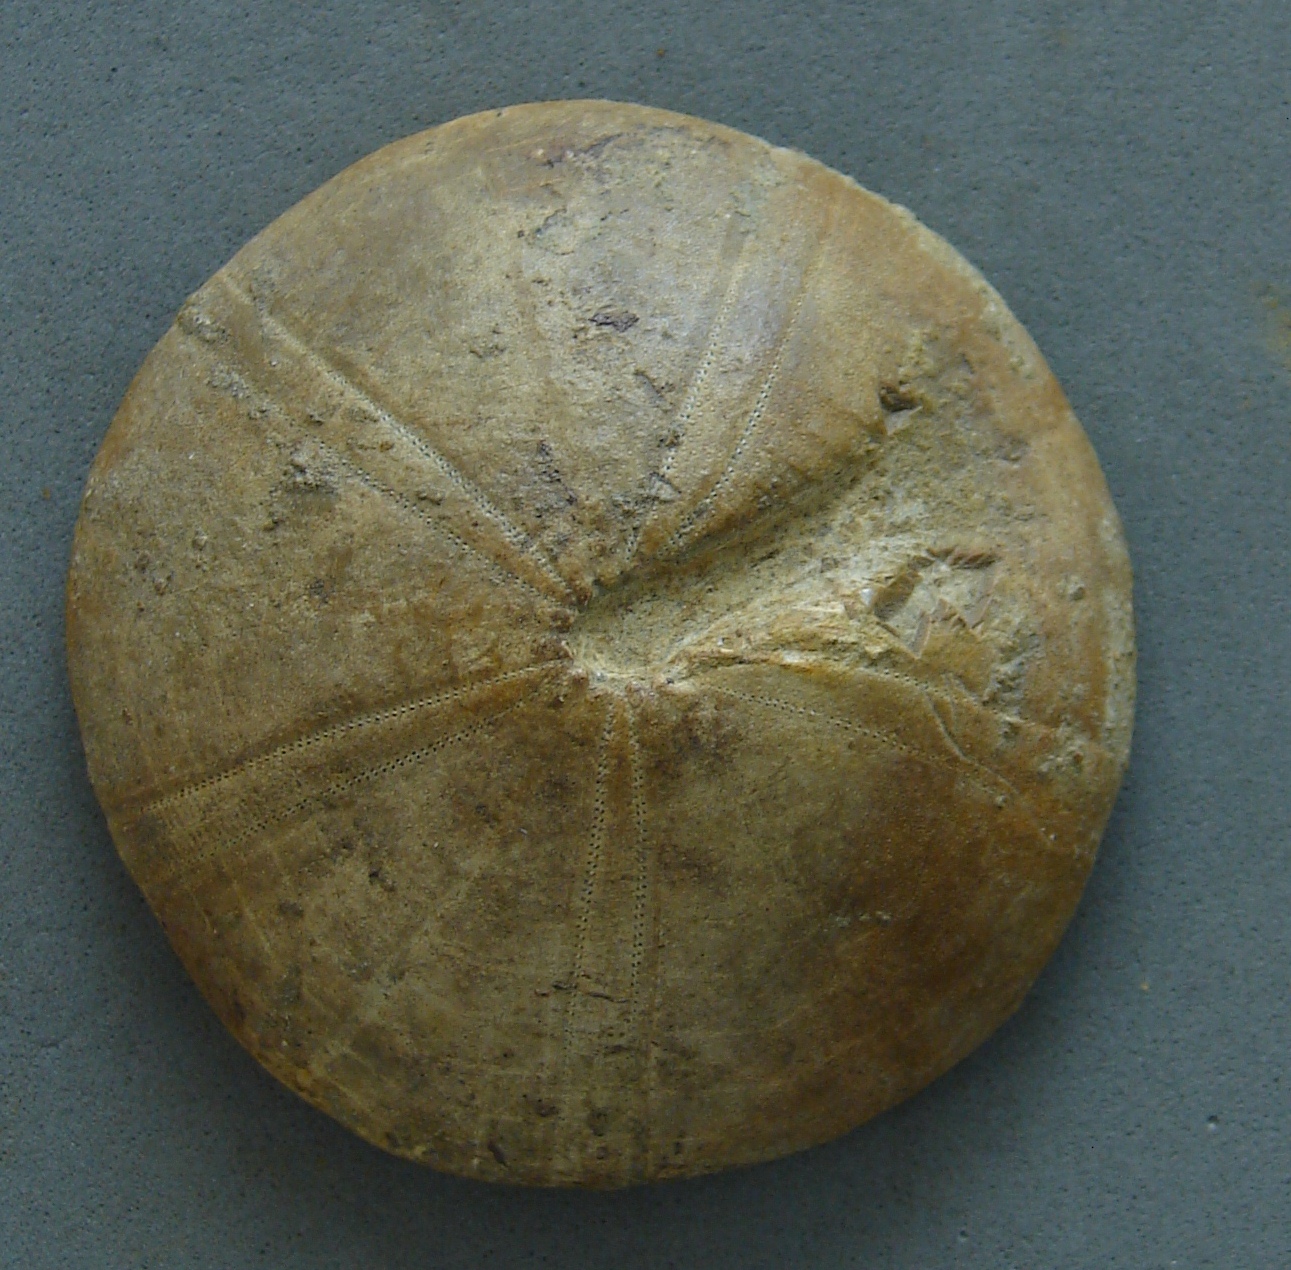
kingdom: Animalia
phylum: Echinodermata
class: Echinoidea
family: Galeropygidae
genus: Galeropygus
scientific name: Galeropygus
